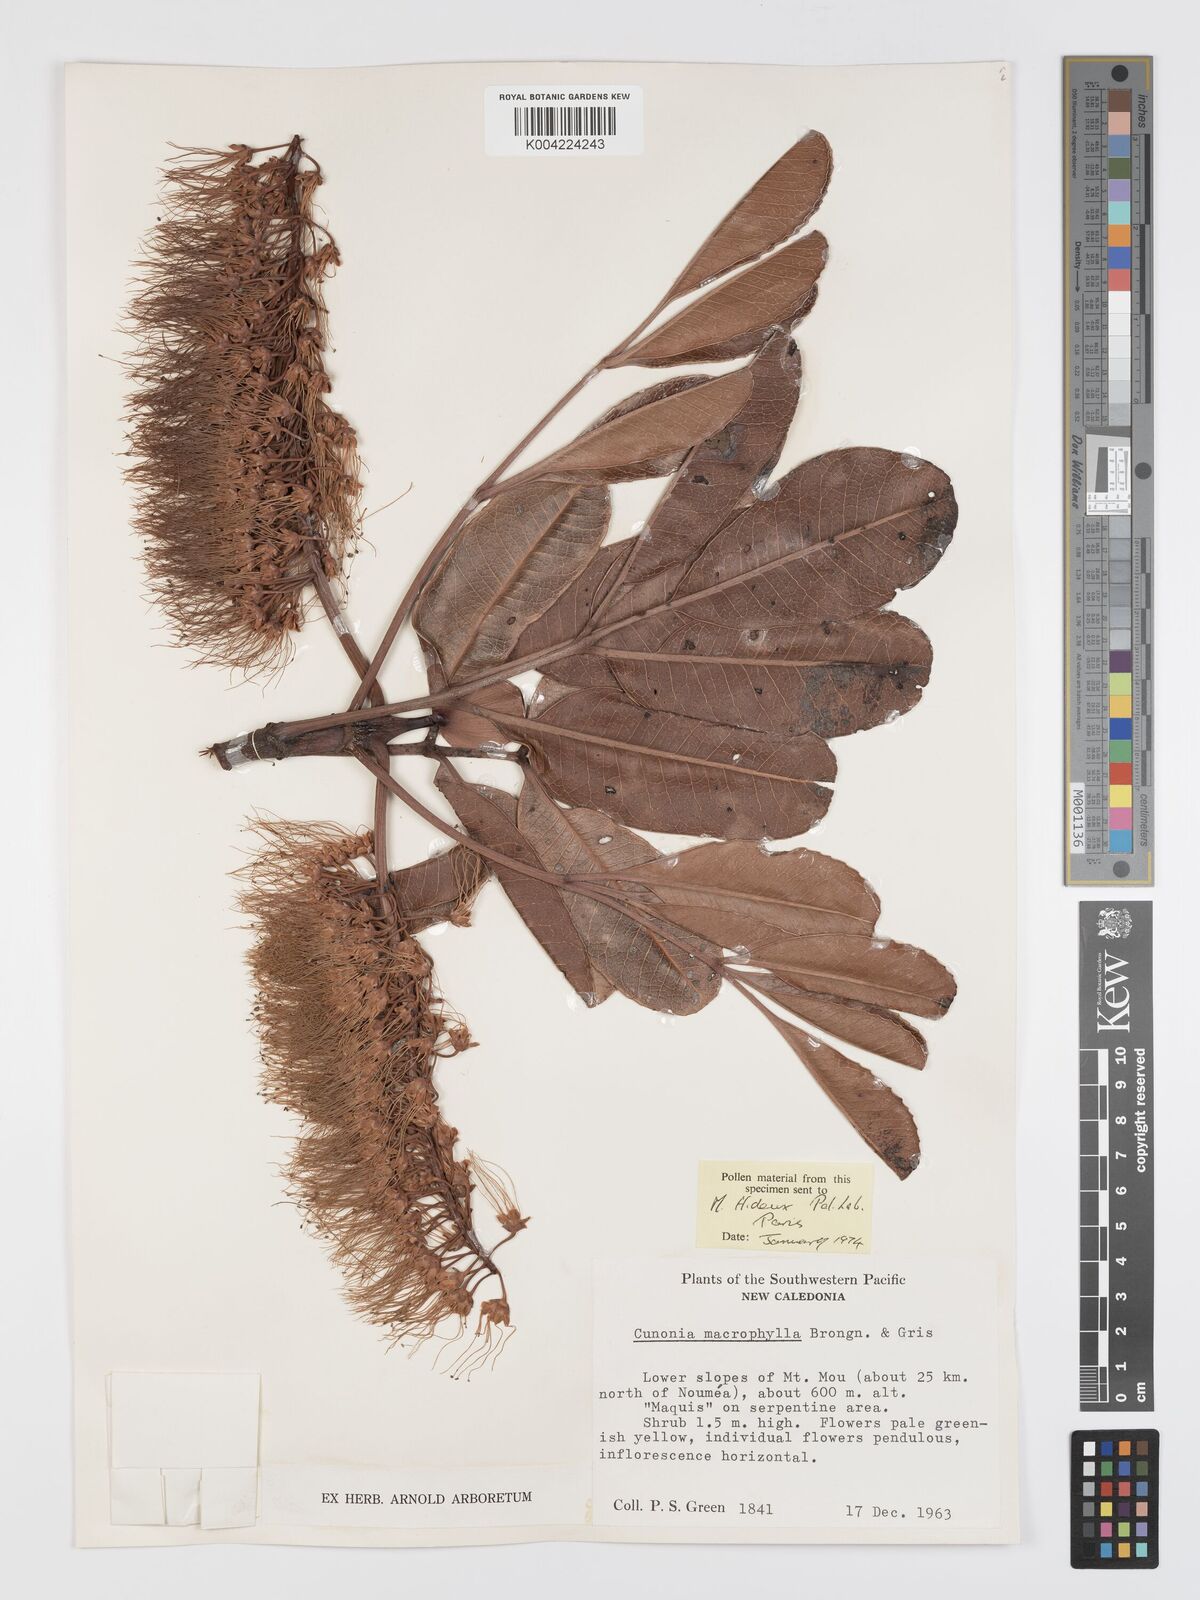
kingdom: Plantae
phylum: Tracheophyta
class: Magnoliopsida
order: Oxalidales
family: Cunoniaceae
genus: Cunonia
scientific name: Cunonia macrophylla
